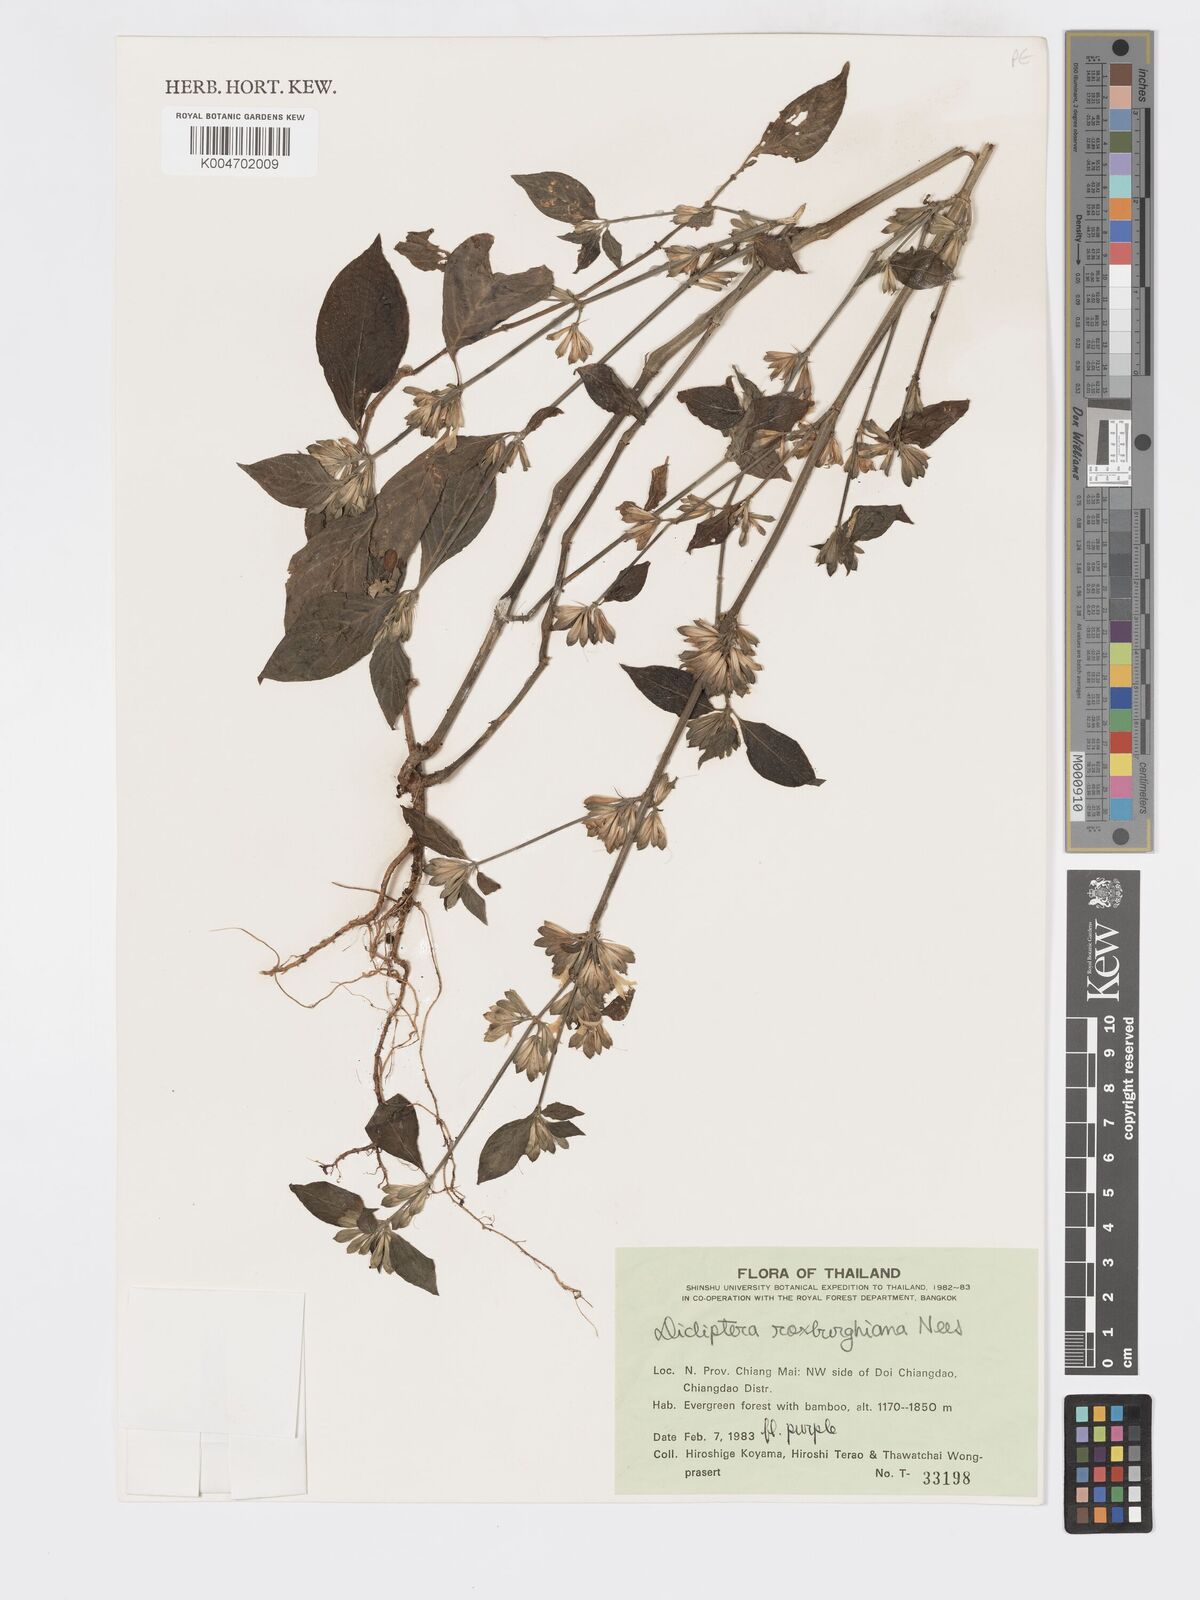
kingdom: Plantae
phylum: Tracheophyta
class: Magnoliopsida
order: Lamiales
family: Acanthaceae
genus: Dicliptera
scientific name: Dicliptera chinensis
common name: Chinese foldwing
